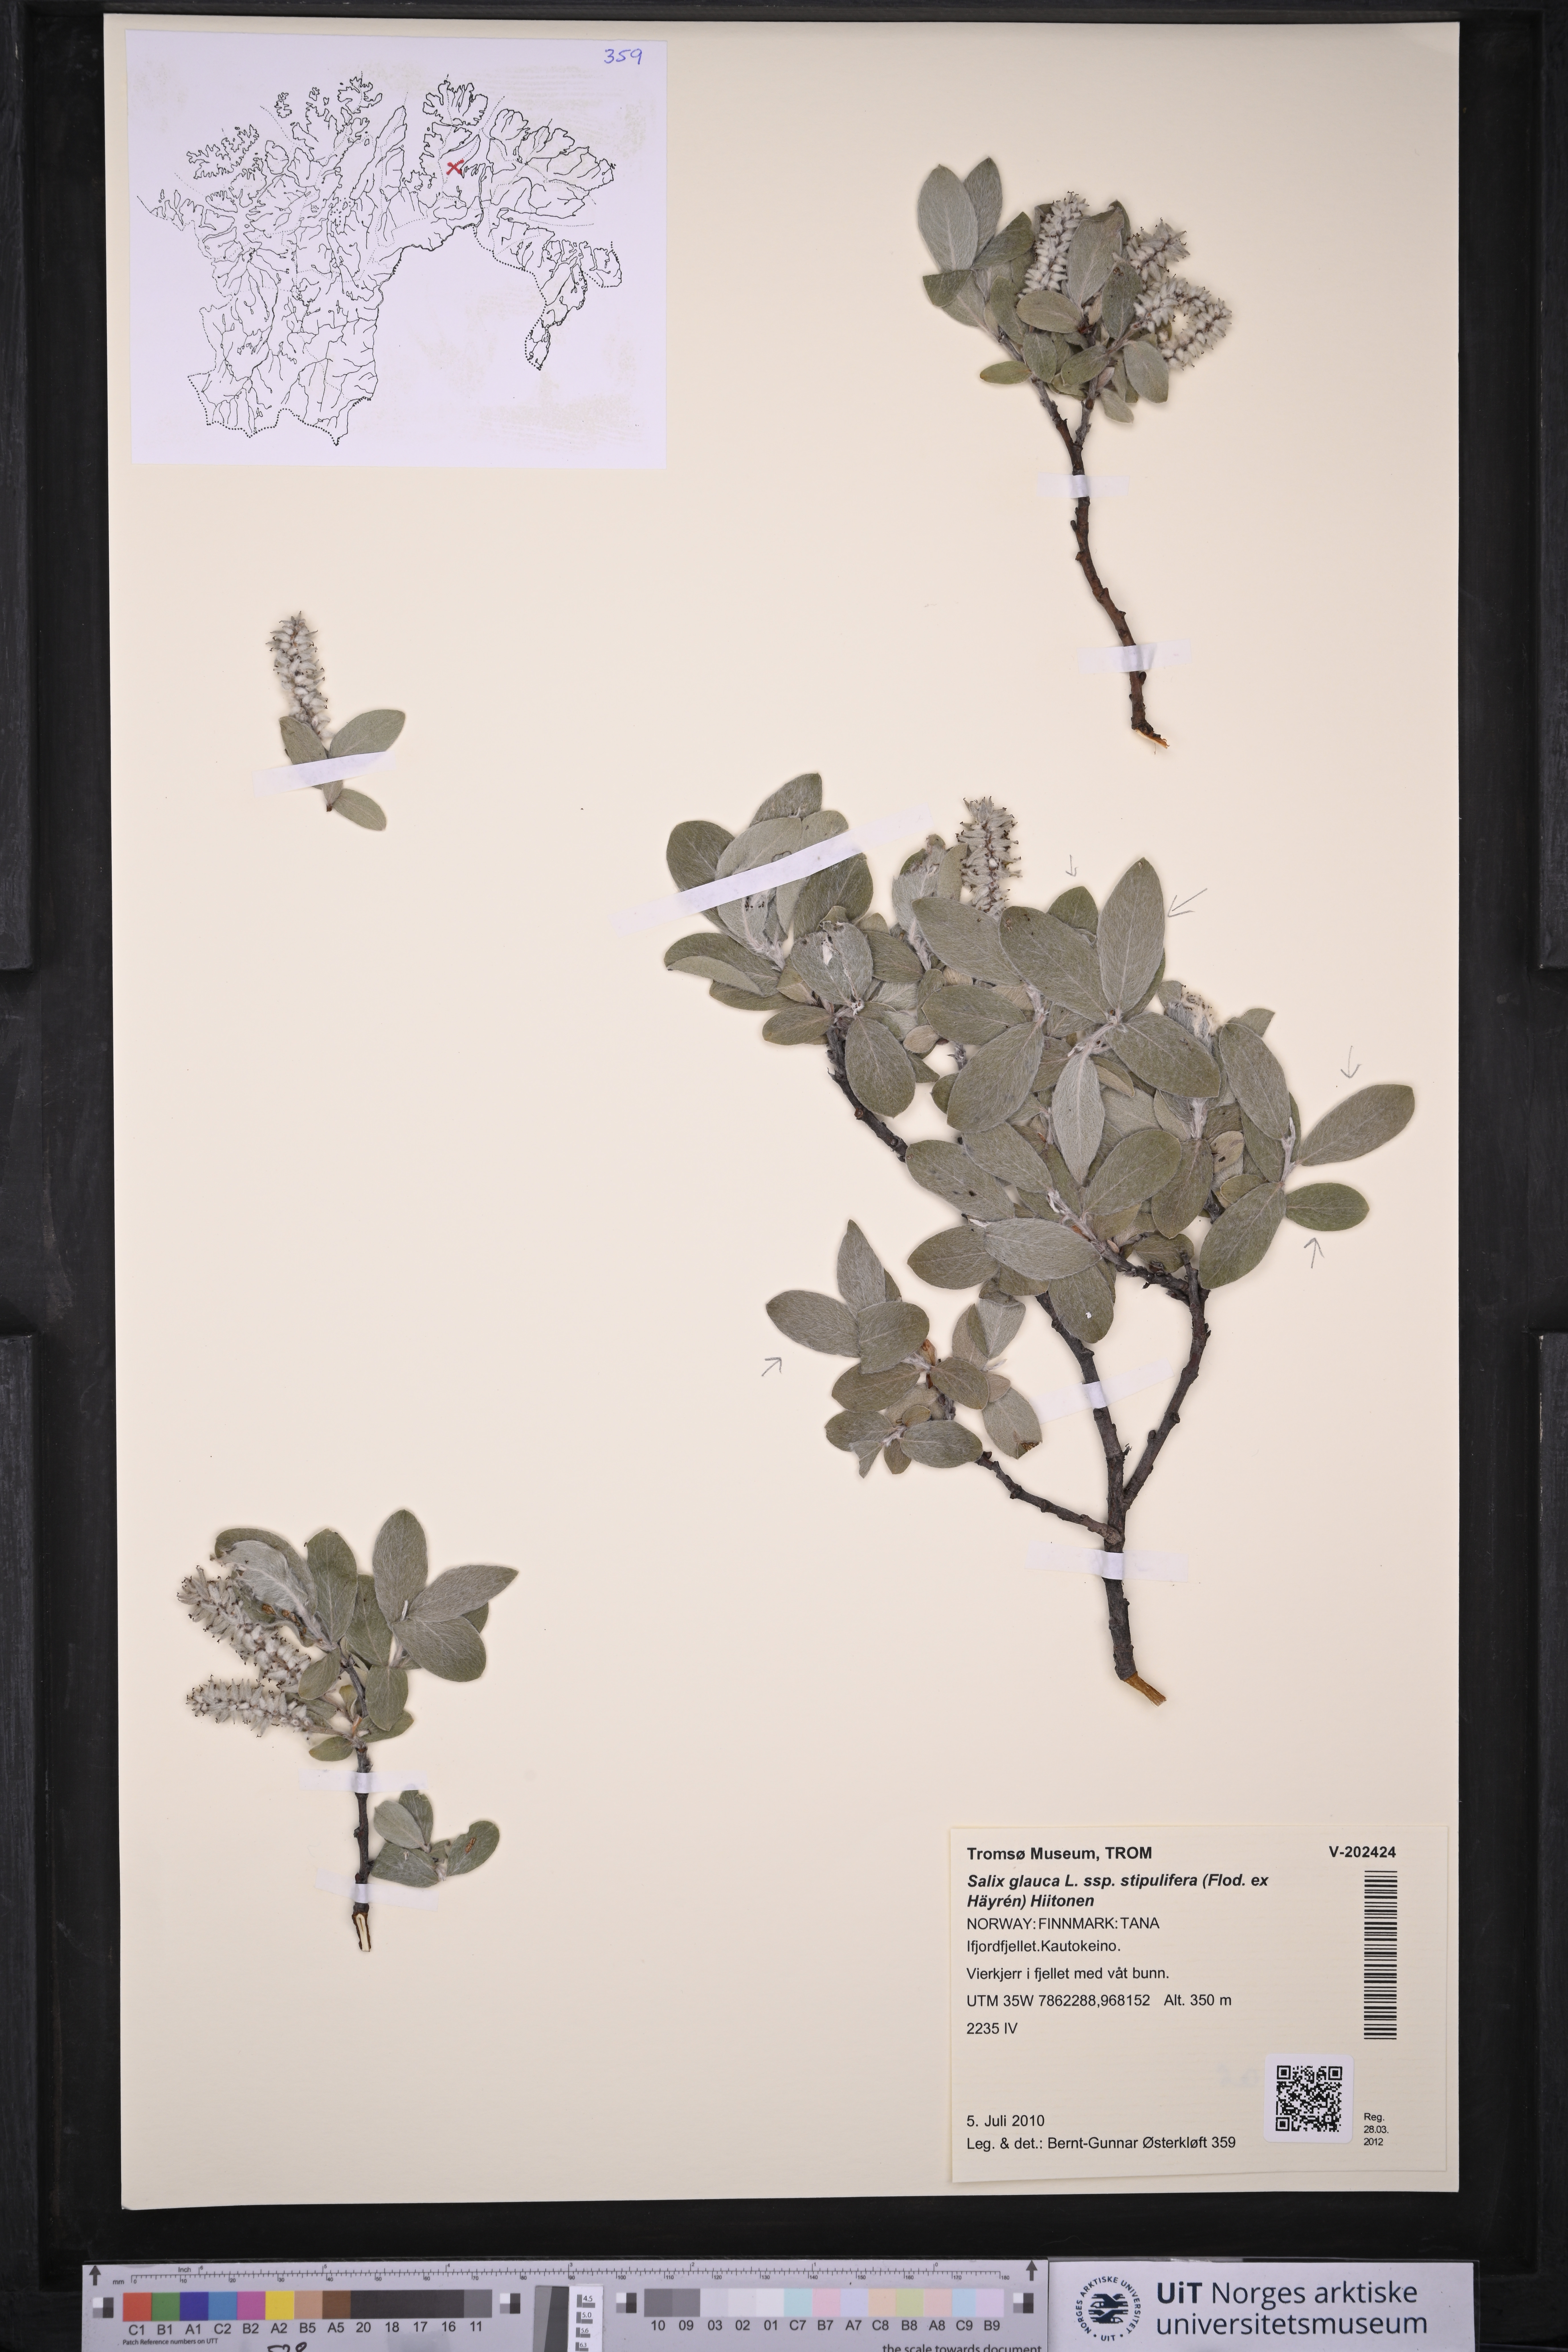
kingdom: Plantae
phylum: Tracheophyta
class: Magnoliopsida
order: Malpighiales
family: Salicaceae
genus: Salix
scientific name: Salix glauca
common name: Glaucous willow
